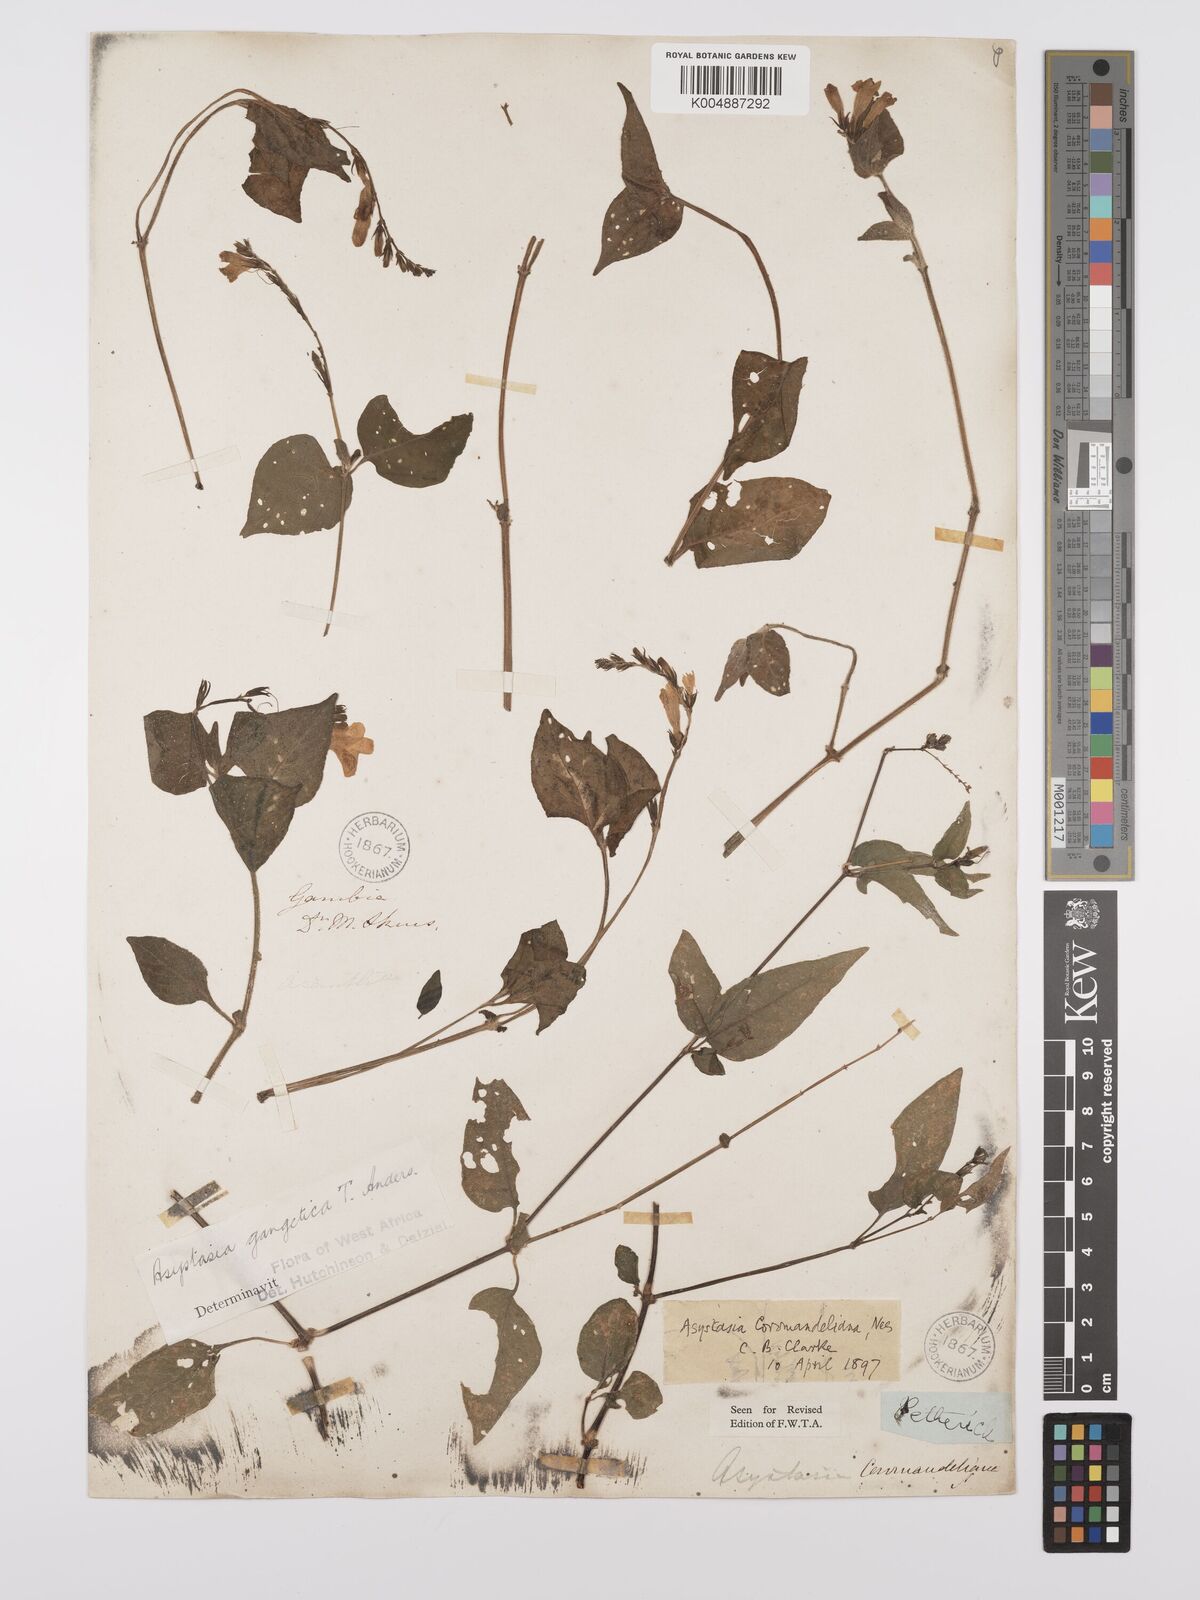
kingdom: Plantae
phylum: Tracheophyta
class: Magnoliopsida
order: Lamiales
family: Acanthaceae
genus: Asystasia
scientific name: Asystasia gangetica
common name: Chinese violet
